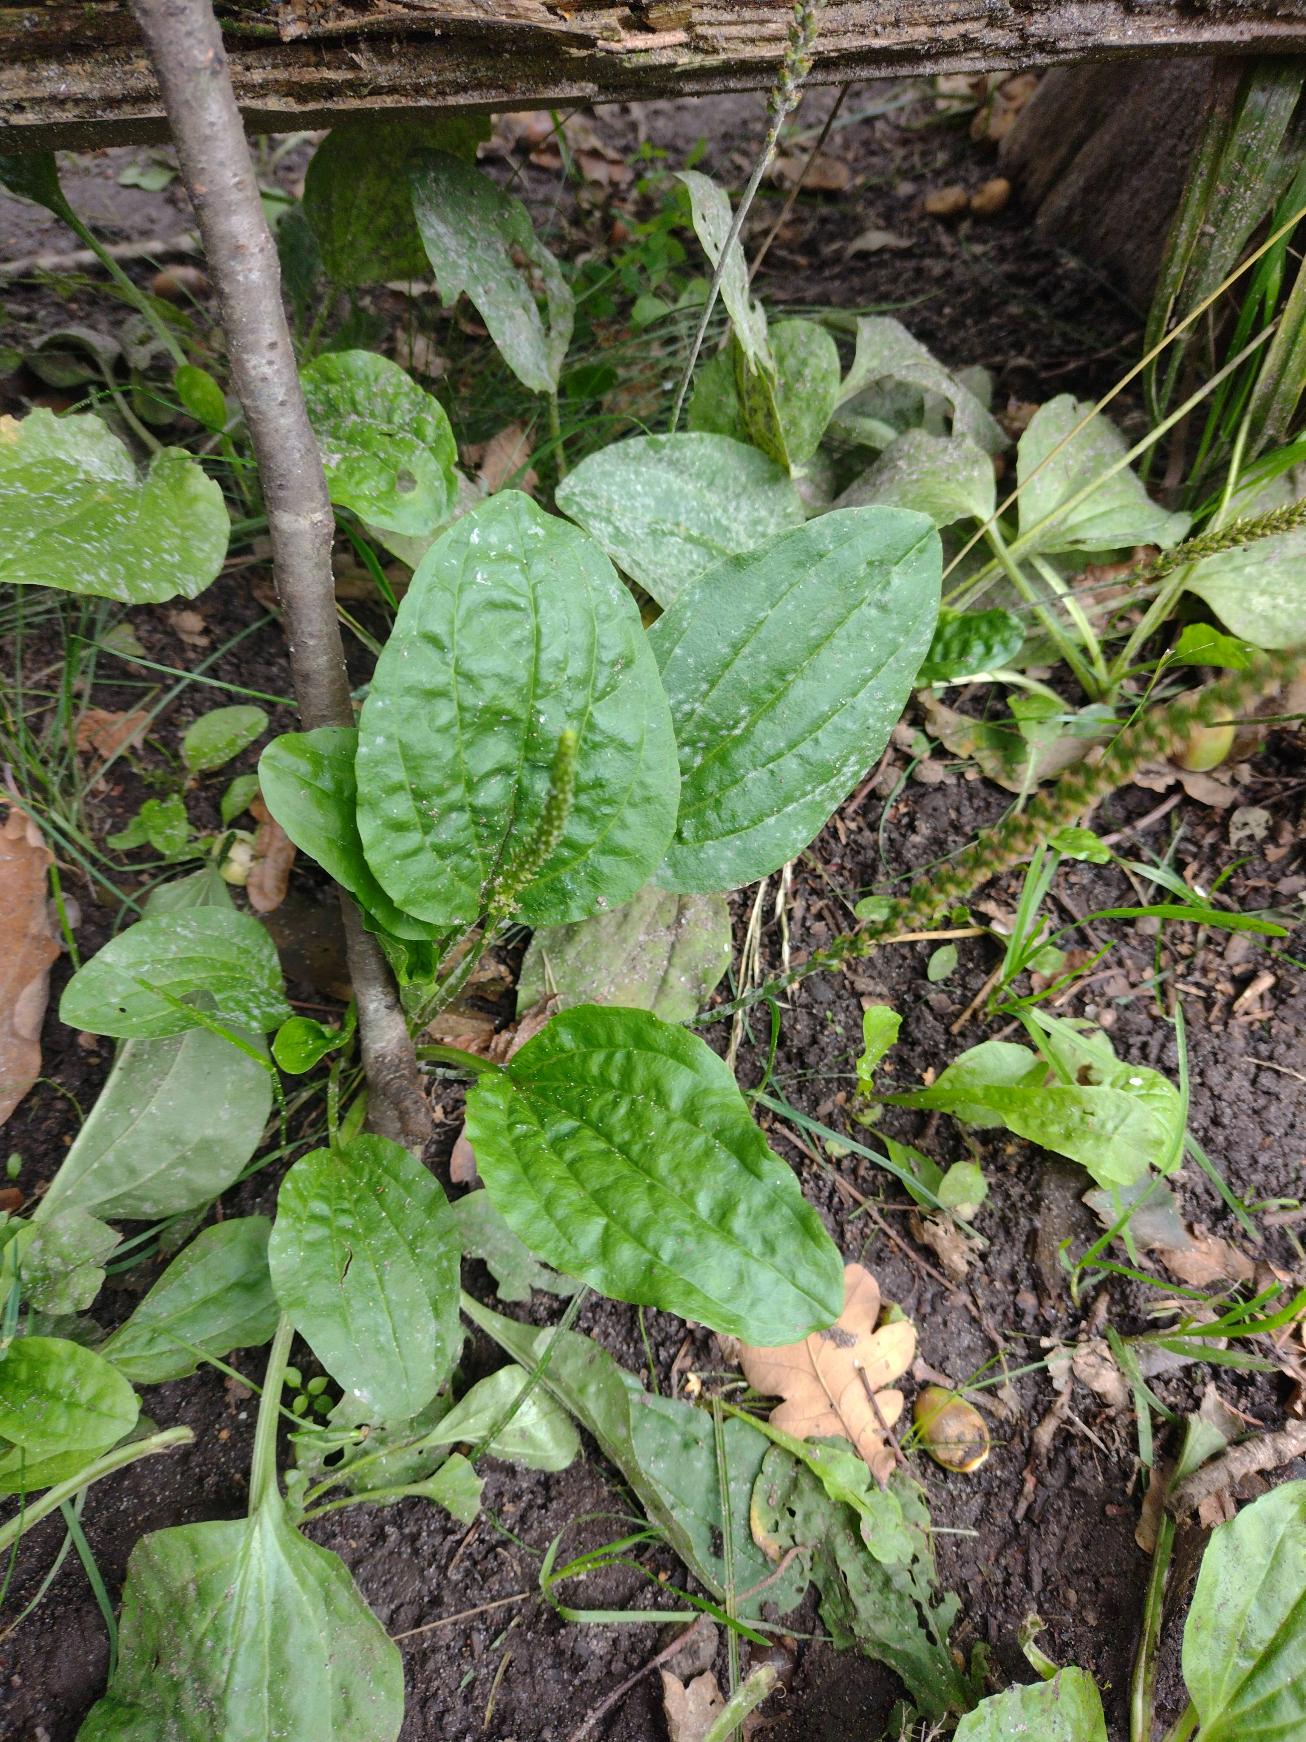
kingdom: Plantae
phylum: Tracheophyta
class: Magnoliopsida
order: Lamiales
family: Plantaginaceae
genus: Plantago
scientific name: Plantago major
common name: Glat vejbred
